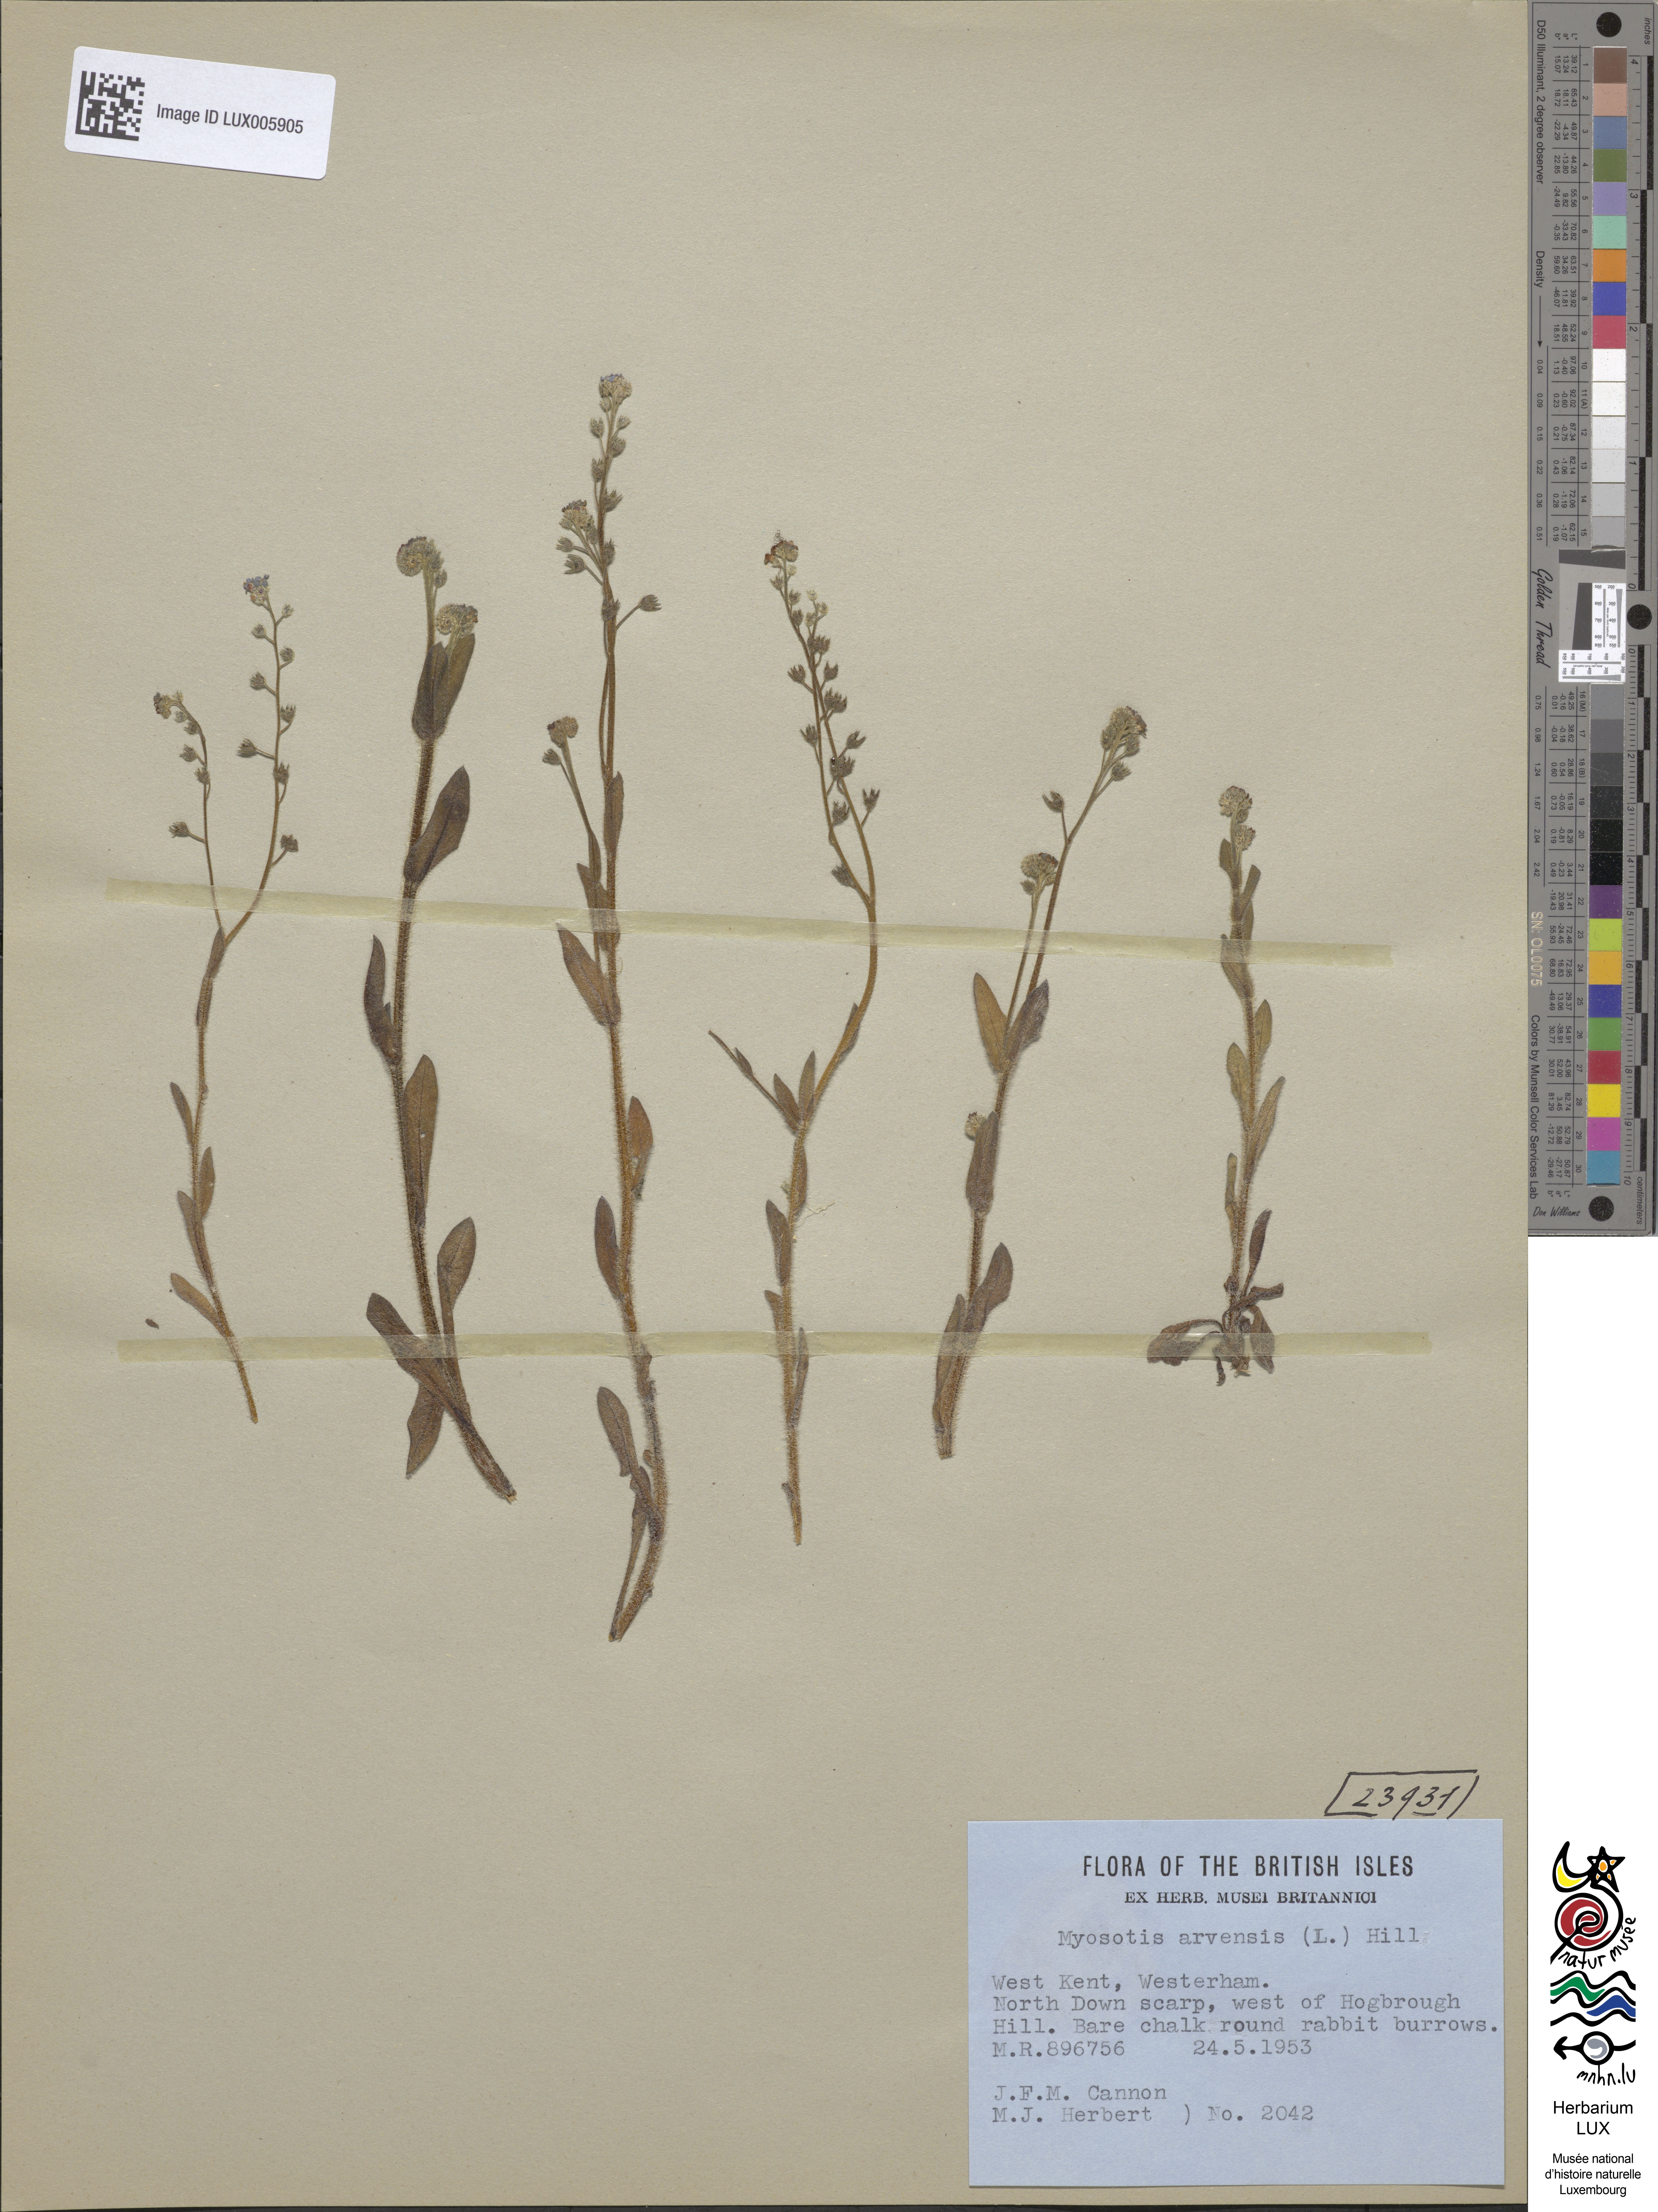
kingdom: Plantae
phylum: Tracheophyta
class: Magnoliopsida
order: Boraginales
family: Boraginaceae
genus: Myosotis
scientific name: Myosotis arvensis
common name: Field forget-me-not
